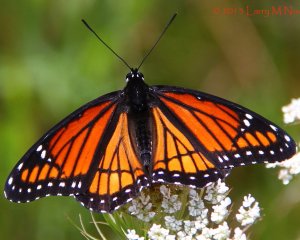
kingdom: Animalia
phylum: Arthropoda
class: Insecta
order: Lepidoptera
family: Nymphalidae
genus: Limenitis
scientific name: Limenitis archippus
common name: Viceroy
